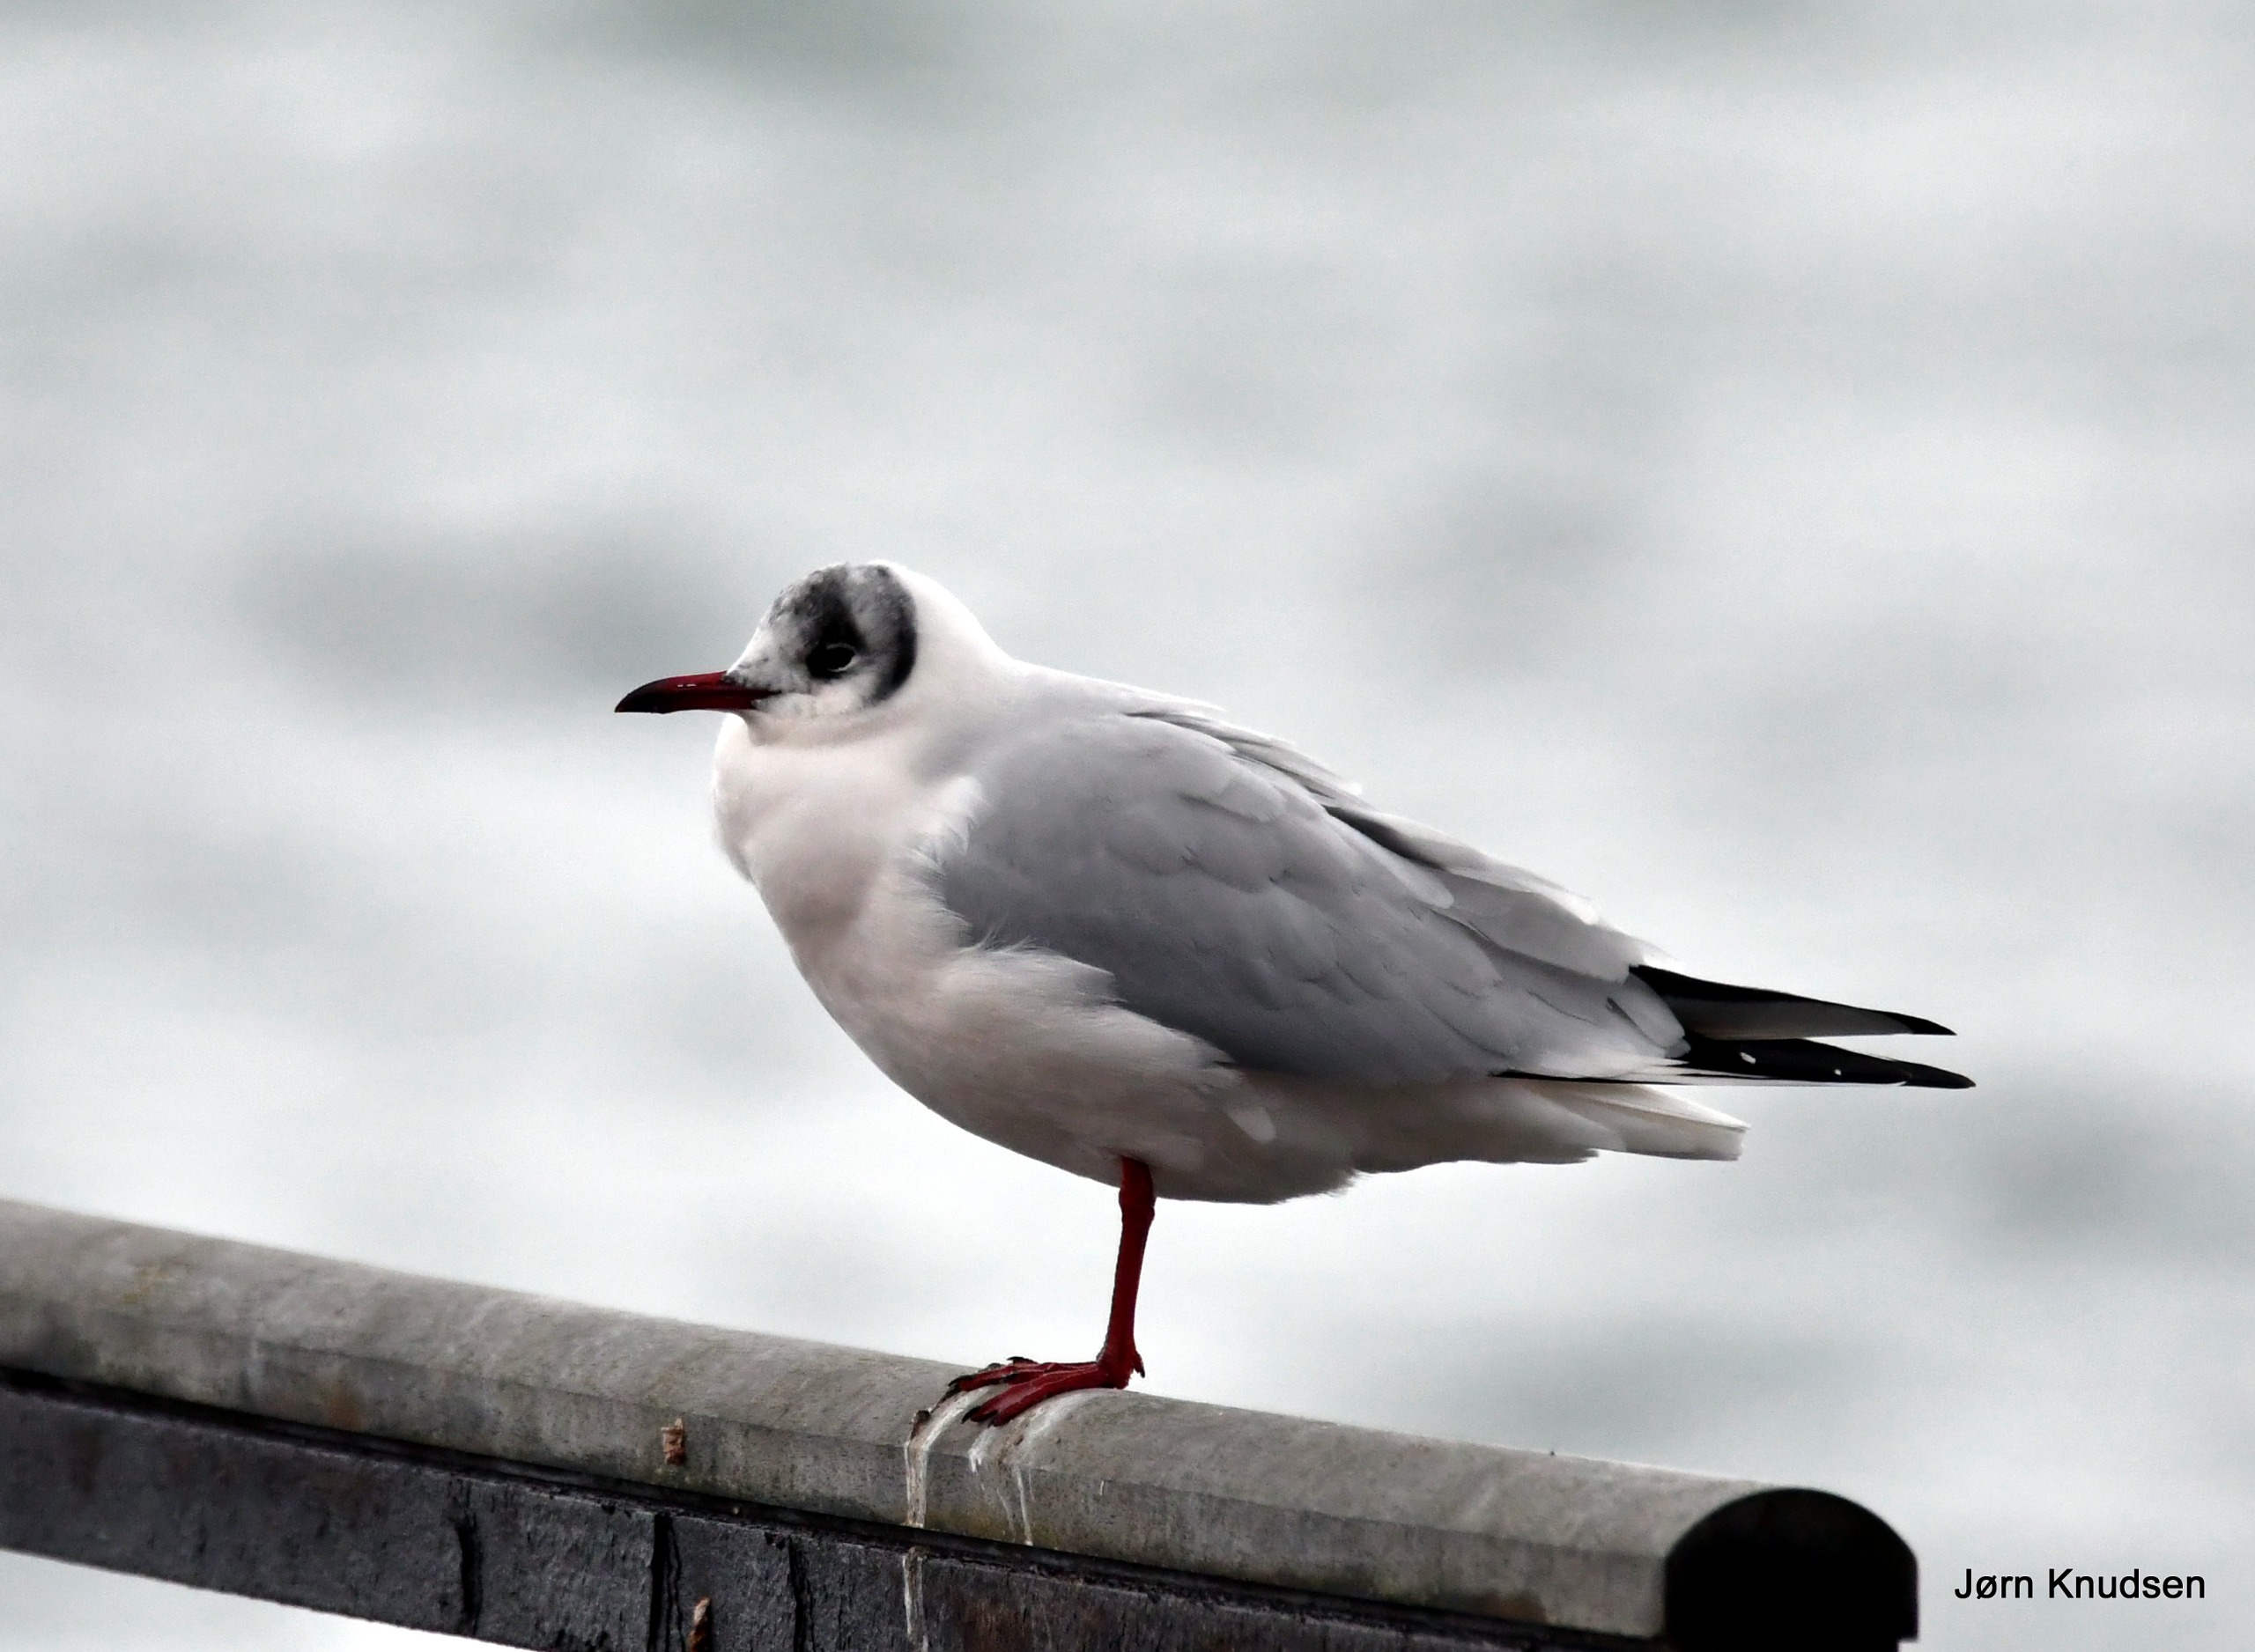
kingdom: Animalia
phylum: Chordata
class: Aves
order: Charadriiformes
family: Laridae
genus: Chroicocephalus
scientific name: Chroicocephalus ridibundus
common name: Hættemåge
